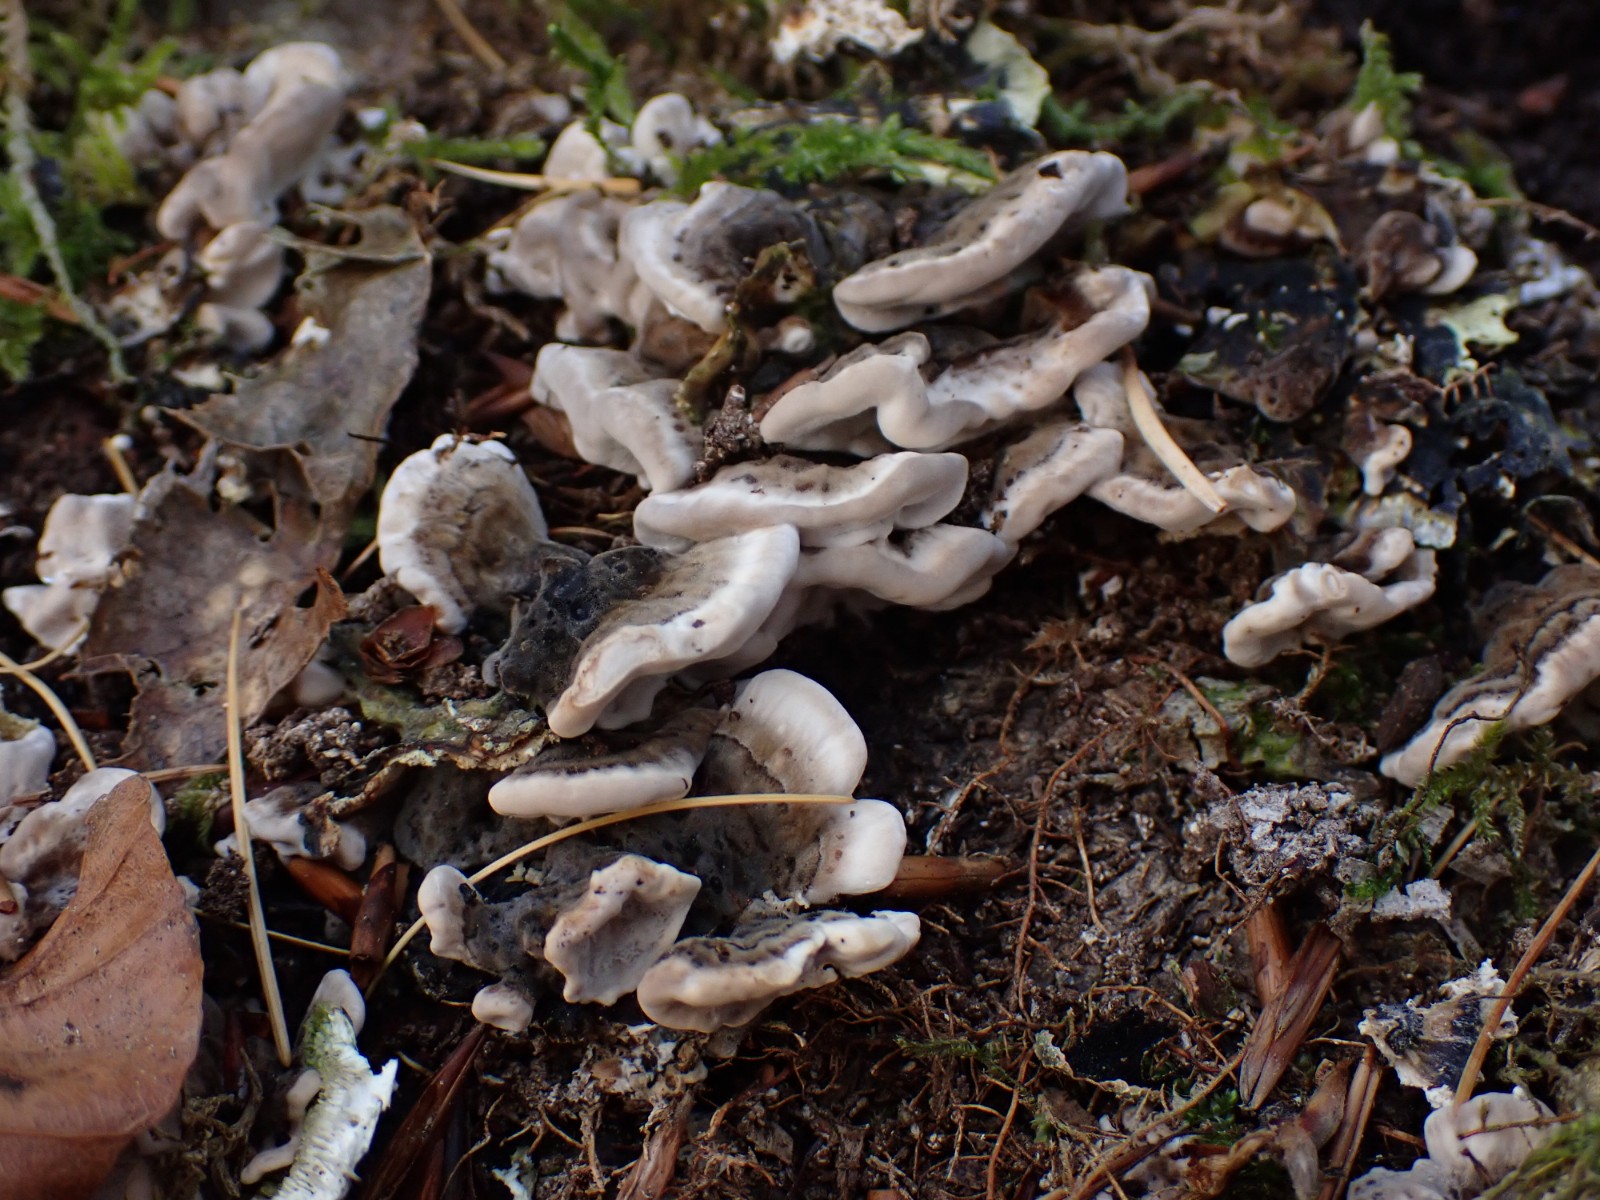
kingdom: Fungi
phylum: Basidiomycota
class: Agaricomycetes
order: Polyporales
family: Phanerochaetaceae
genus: Bjerkandera
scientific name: Bjerkandera adusta
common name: sveden sodporesvamp
